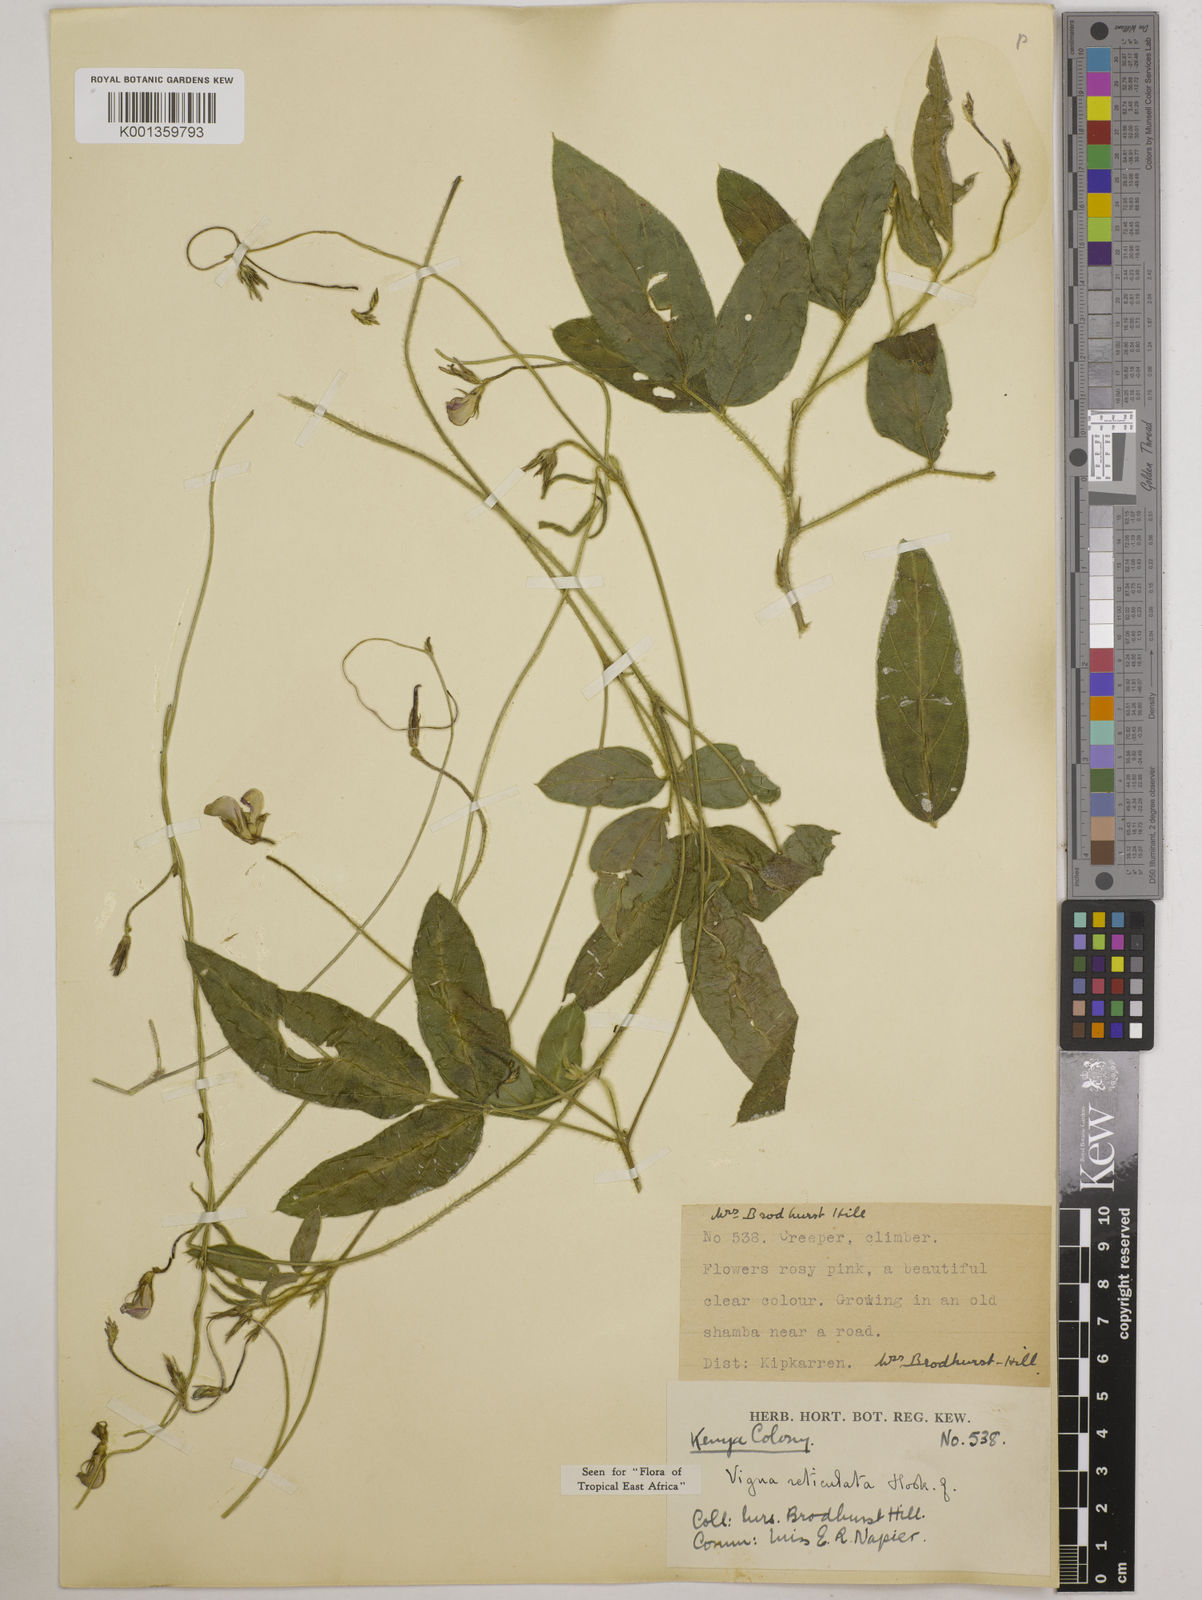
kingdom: Plantae
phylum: Tracheophyta
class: Magnoliopsida
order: Fabales
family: Fabaceae
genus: Vigna
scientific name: Vigna reticulata
